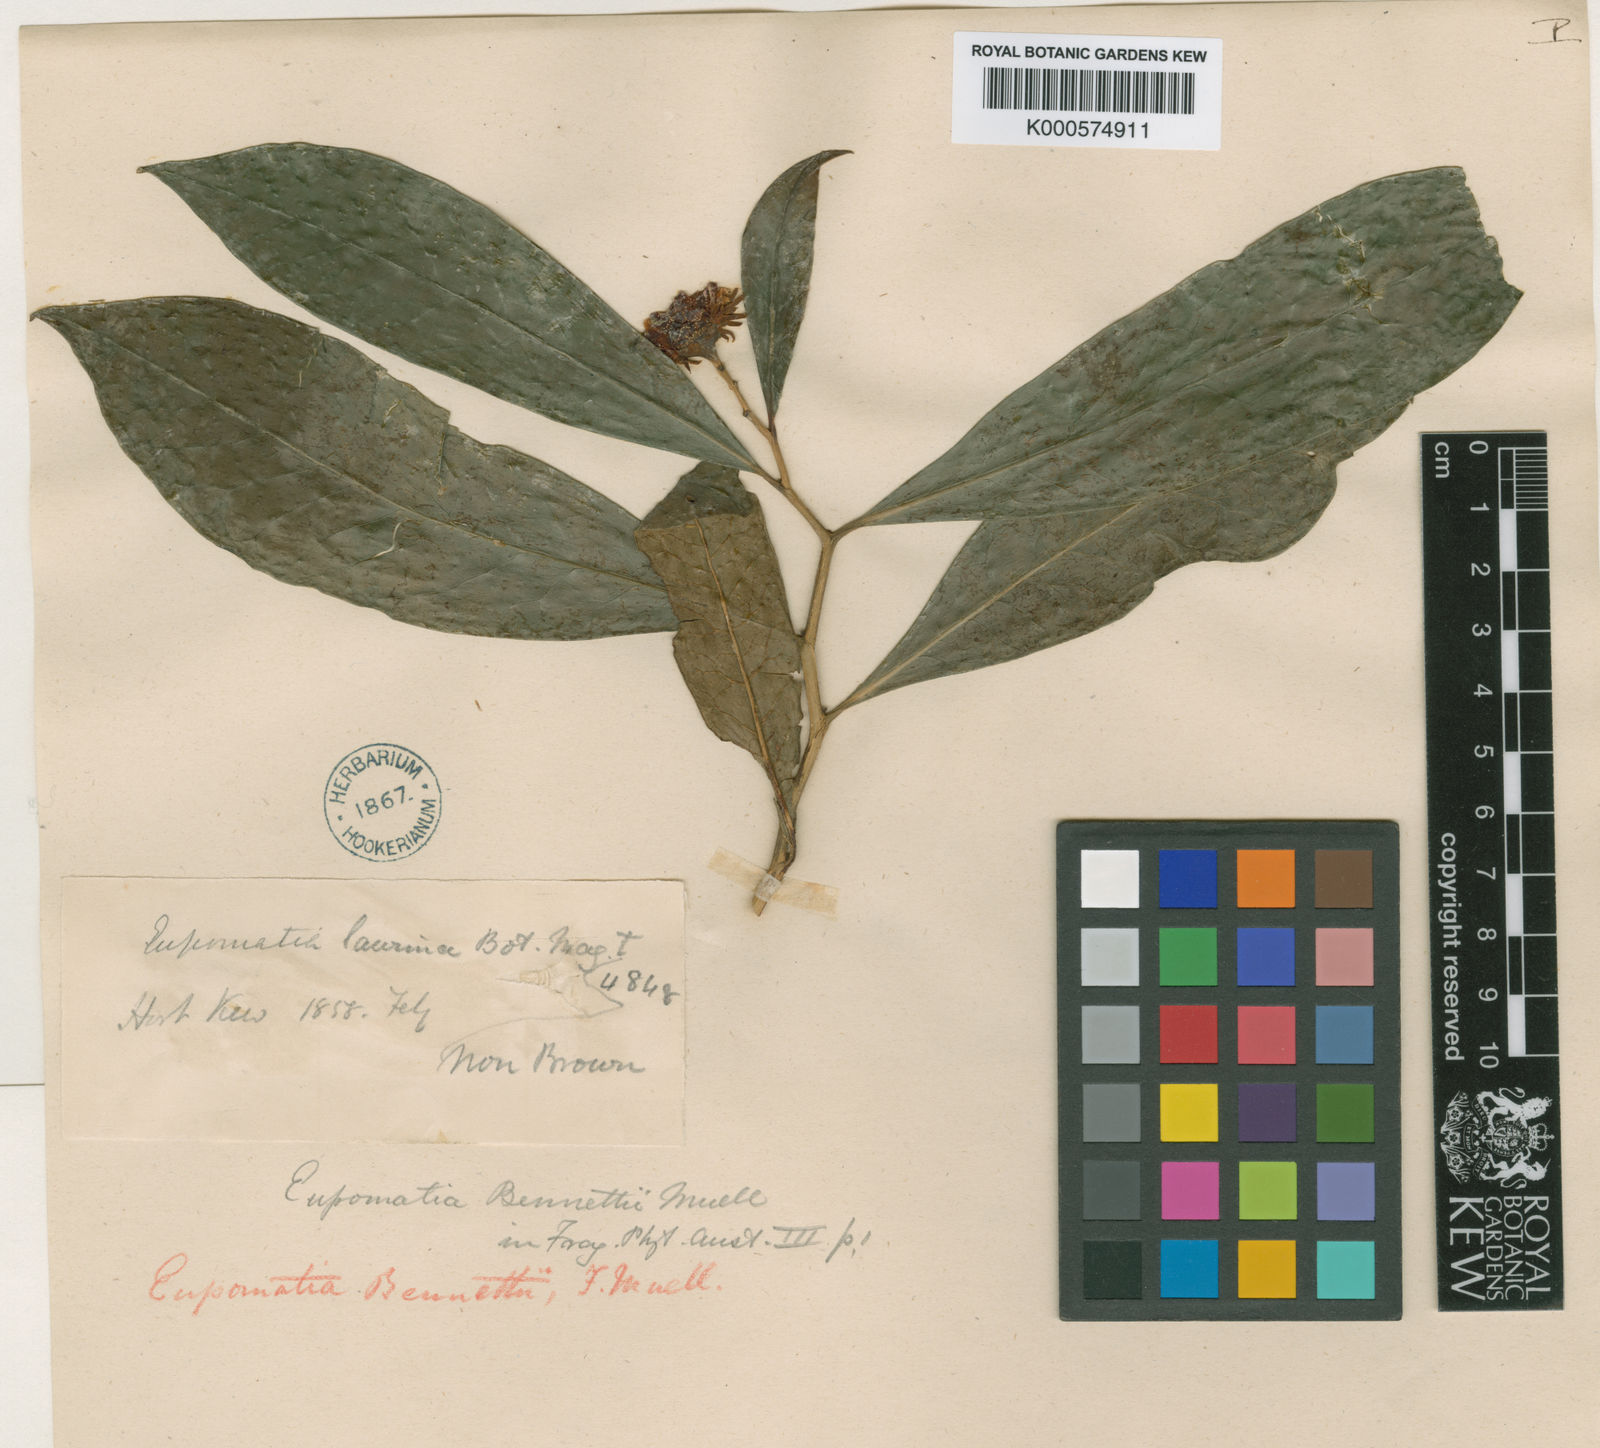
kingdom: Plantae
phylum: Tracheophyta
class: Magnoliopsida
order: Magnoliales
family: Eupomatiaceae
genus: Eupomatia
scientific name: Eupomatia bennettii
